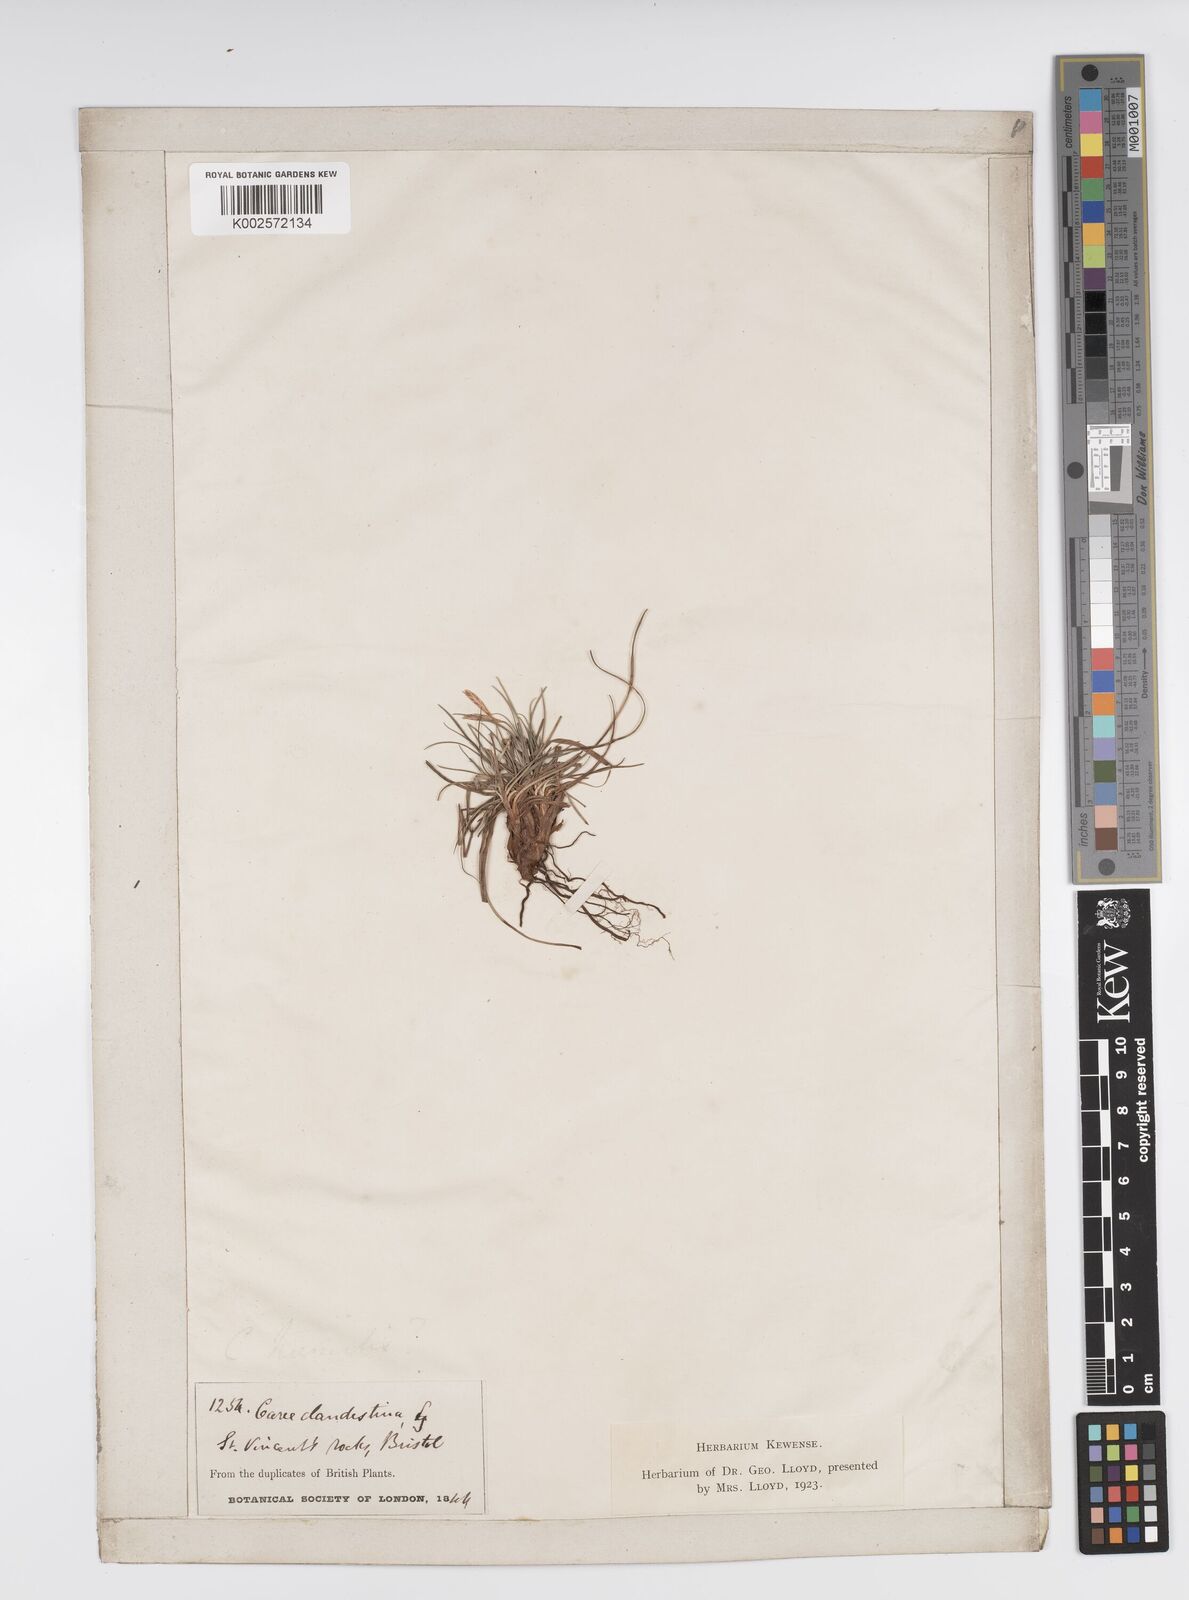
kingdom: Plantae
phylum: Tracheophyta
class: Liliopsida
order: Poales
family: Cyperaceae
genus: Carex
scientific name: Carex humilis
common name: Dwarf sedge
